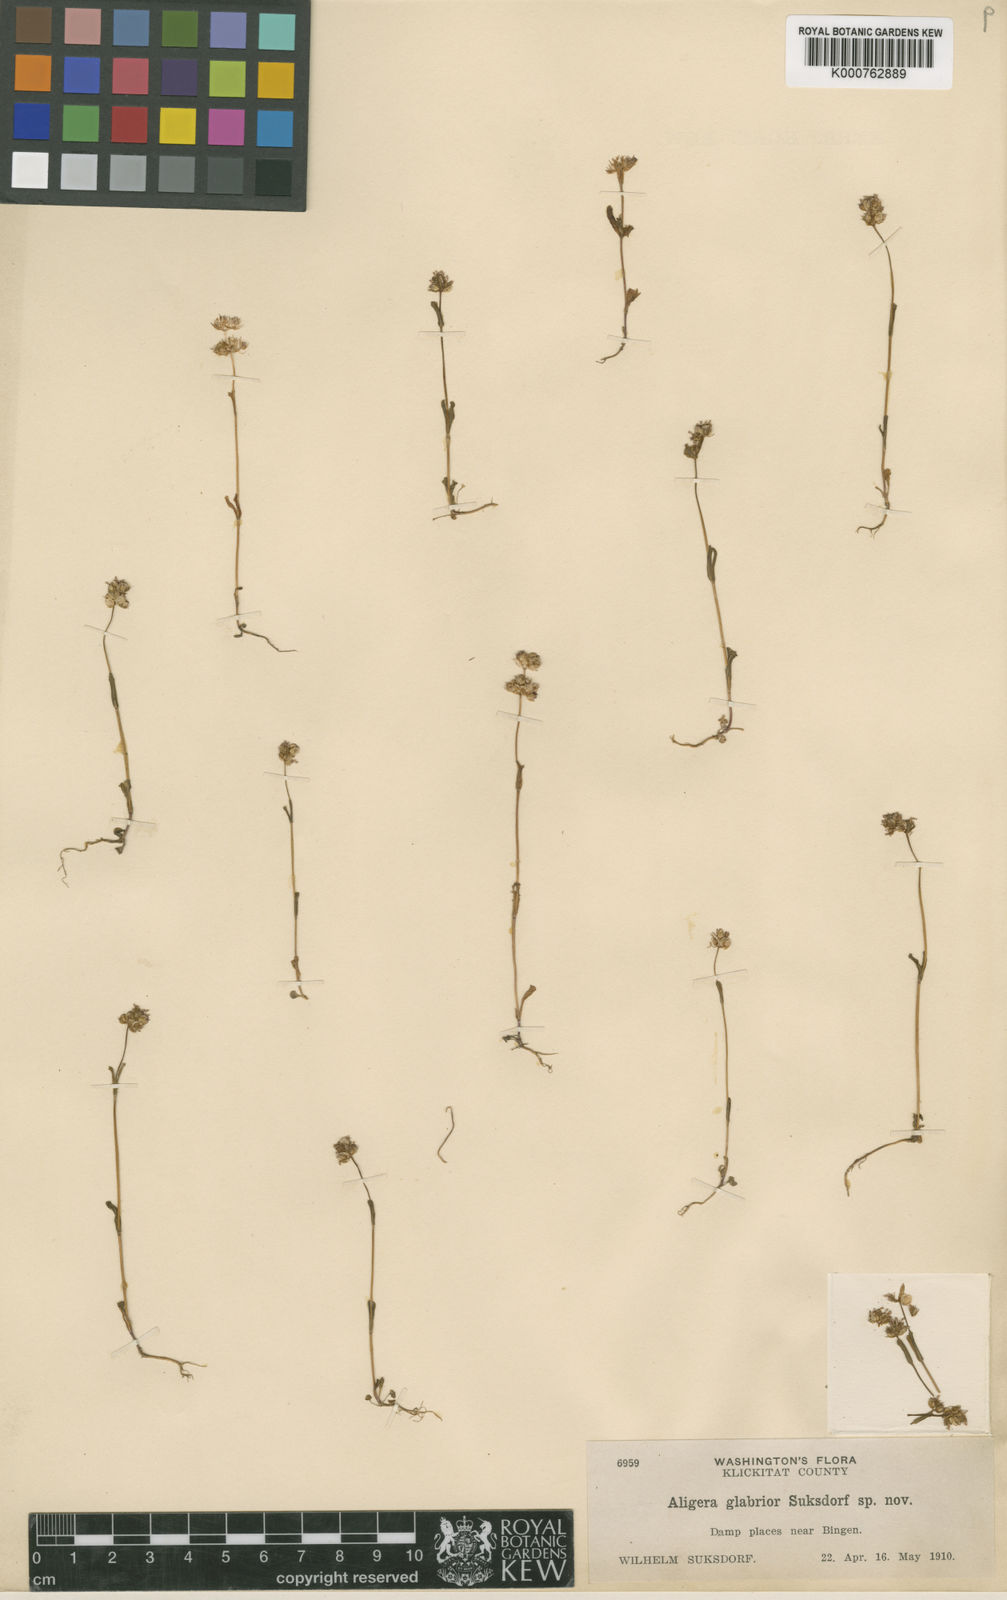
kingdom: Plantae
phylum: Tracheophyta
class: Magnoliopsida
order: Dipsacales
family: Caprifoliaceae
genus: Plectritis
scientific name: Plectritis ciliosa
